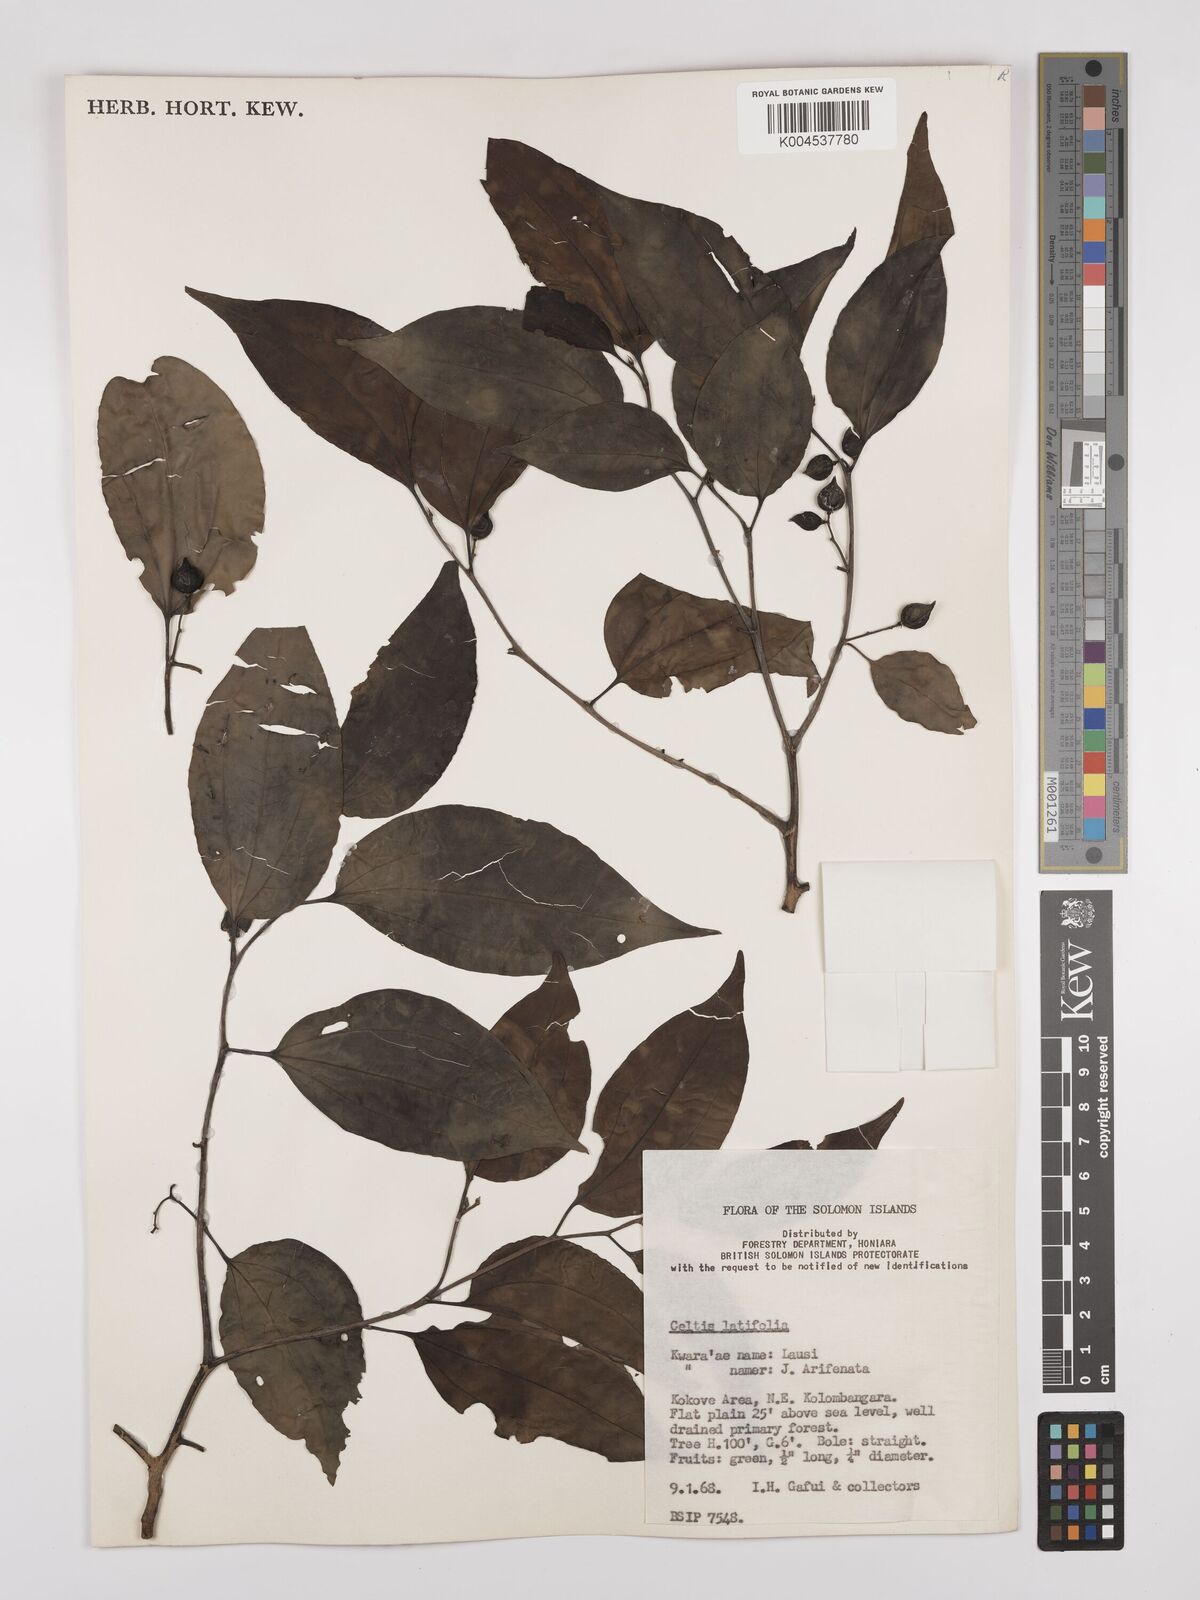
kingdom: Plantae
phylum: Tracheophyta
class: Magnoliopsida
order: Rosales
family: Cannabaceae
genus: Celtis
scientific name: Celtis latifolia
